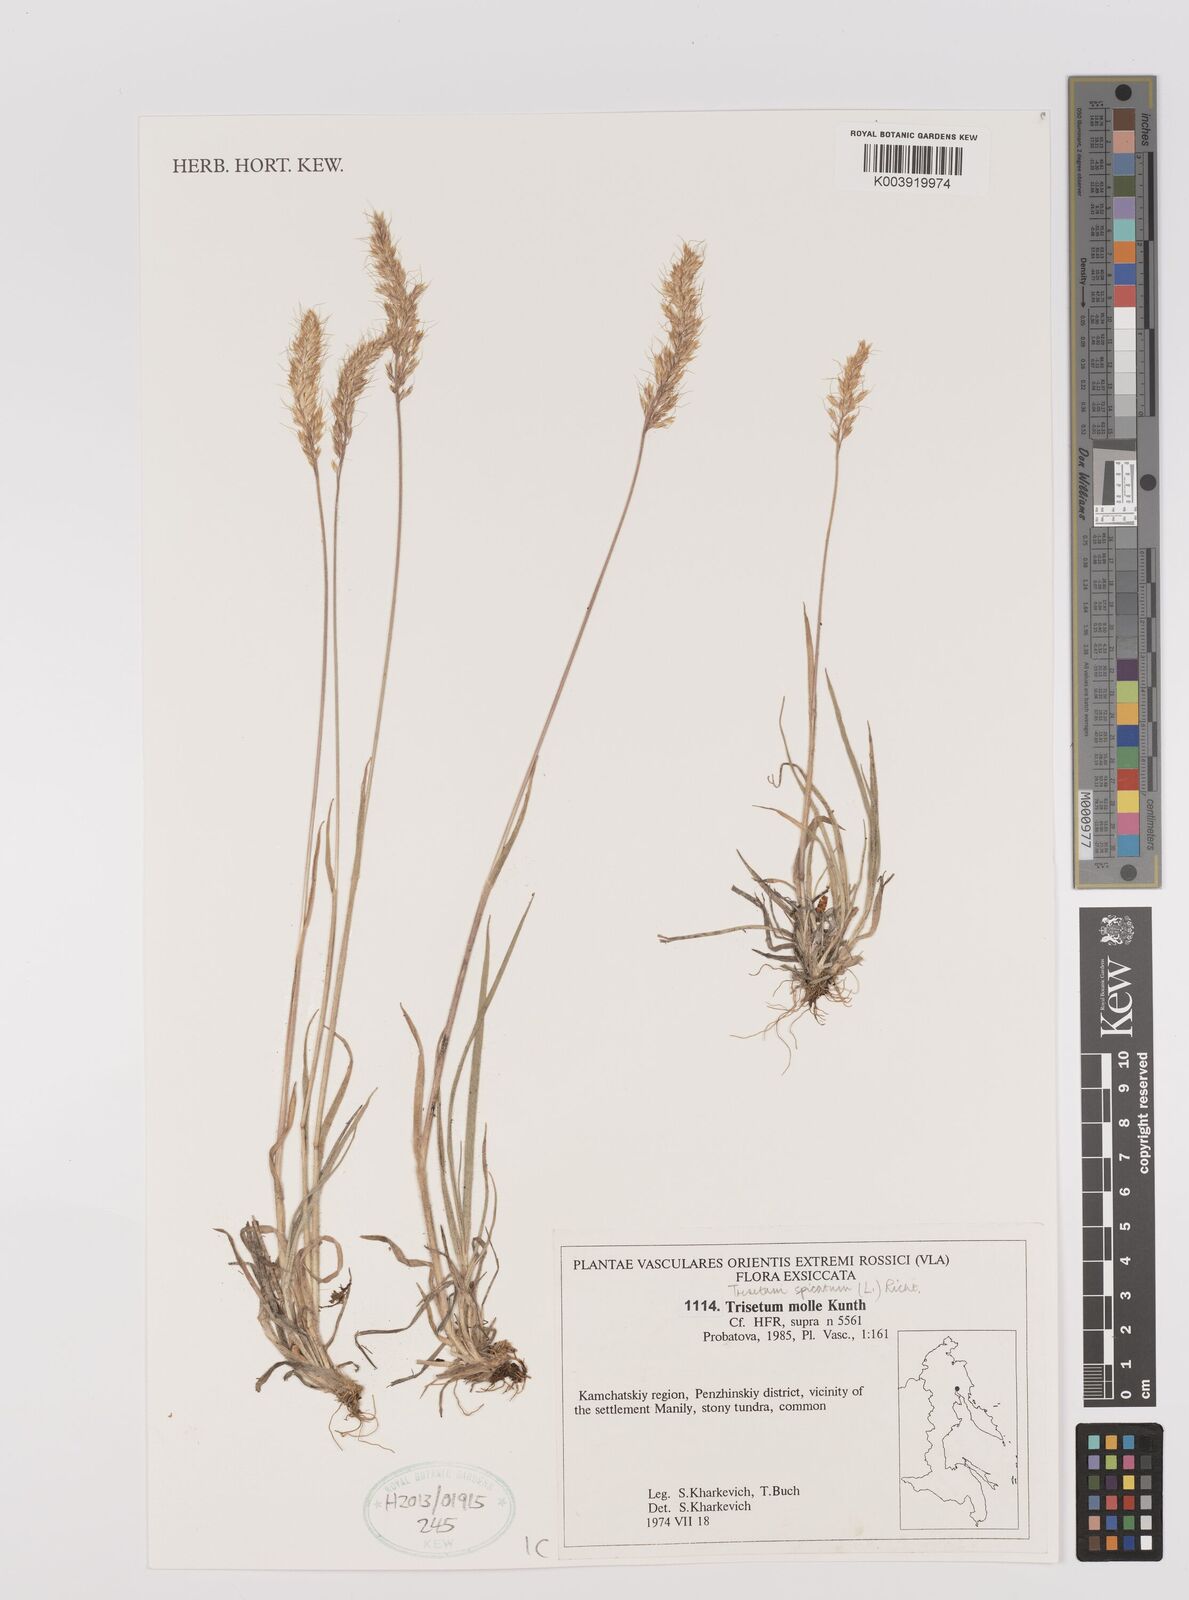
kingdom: Plantae
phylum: Tracheophyta
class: Liliopsida
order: Poales
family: Poaceae
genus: Koeleria
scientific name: Koeleria spicata
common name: Mountain trisetum
